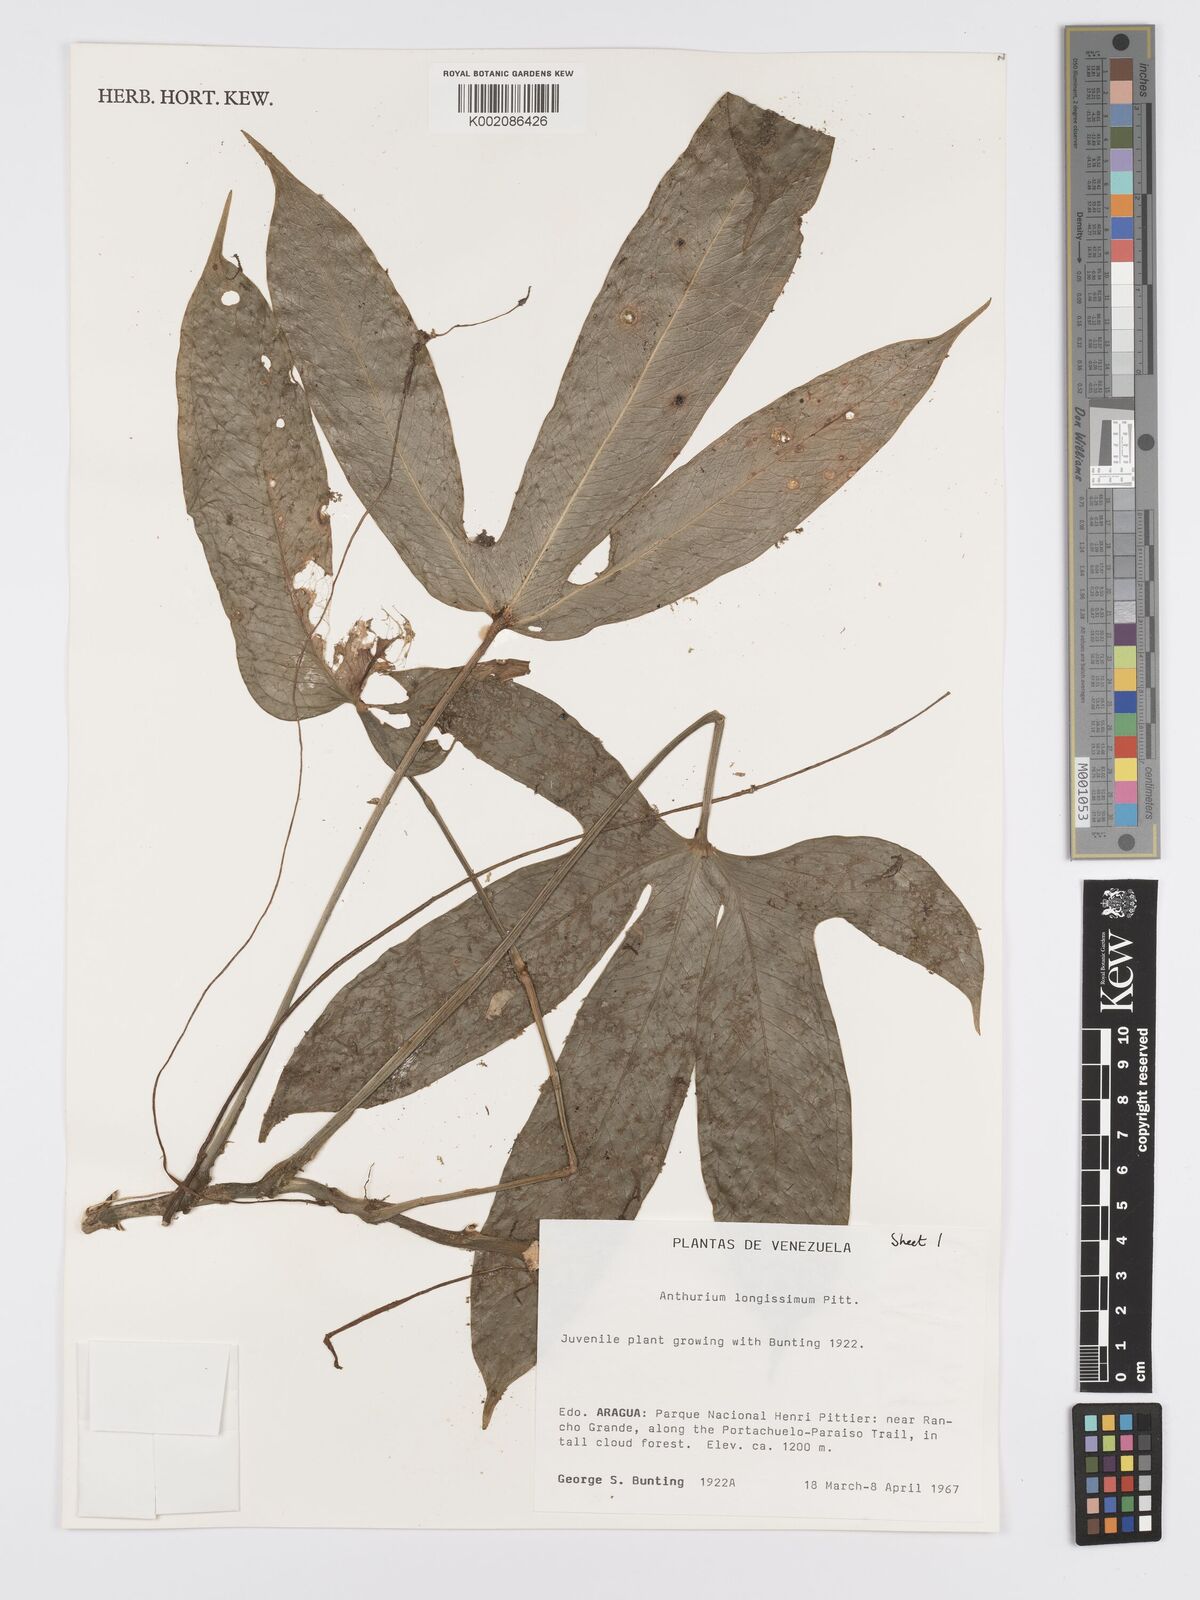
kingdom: Plantae
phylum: Tracheophyta
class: Liliopsida
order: Alismatales
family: Araceae
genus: Anthurium
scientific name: Anthurium longissimum
